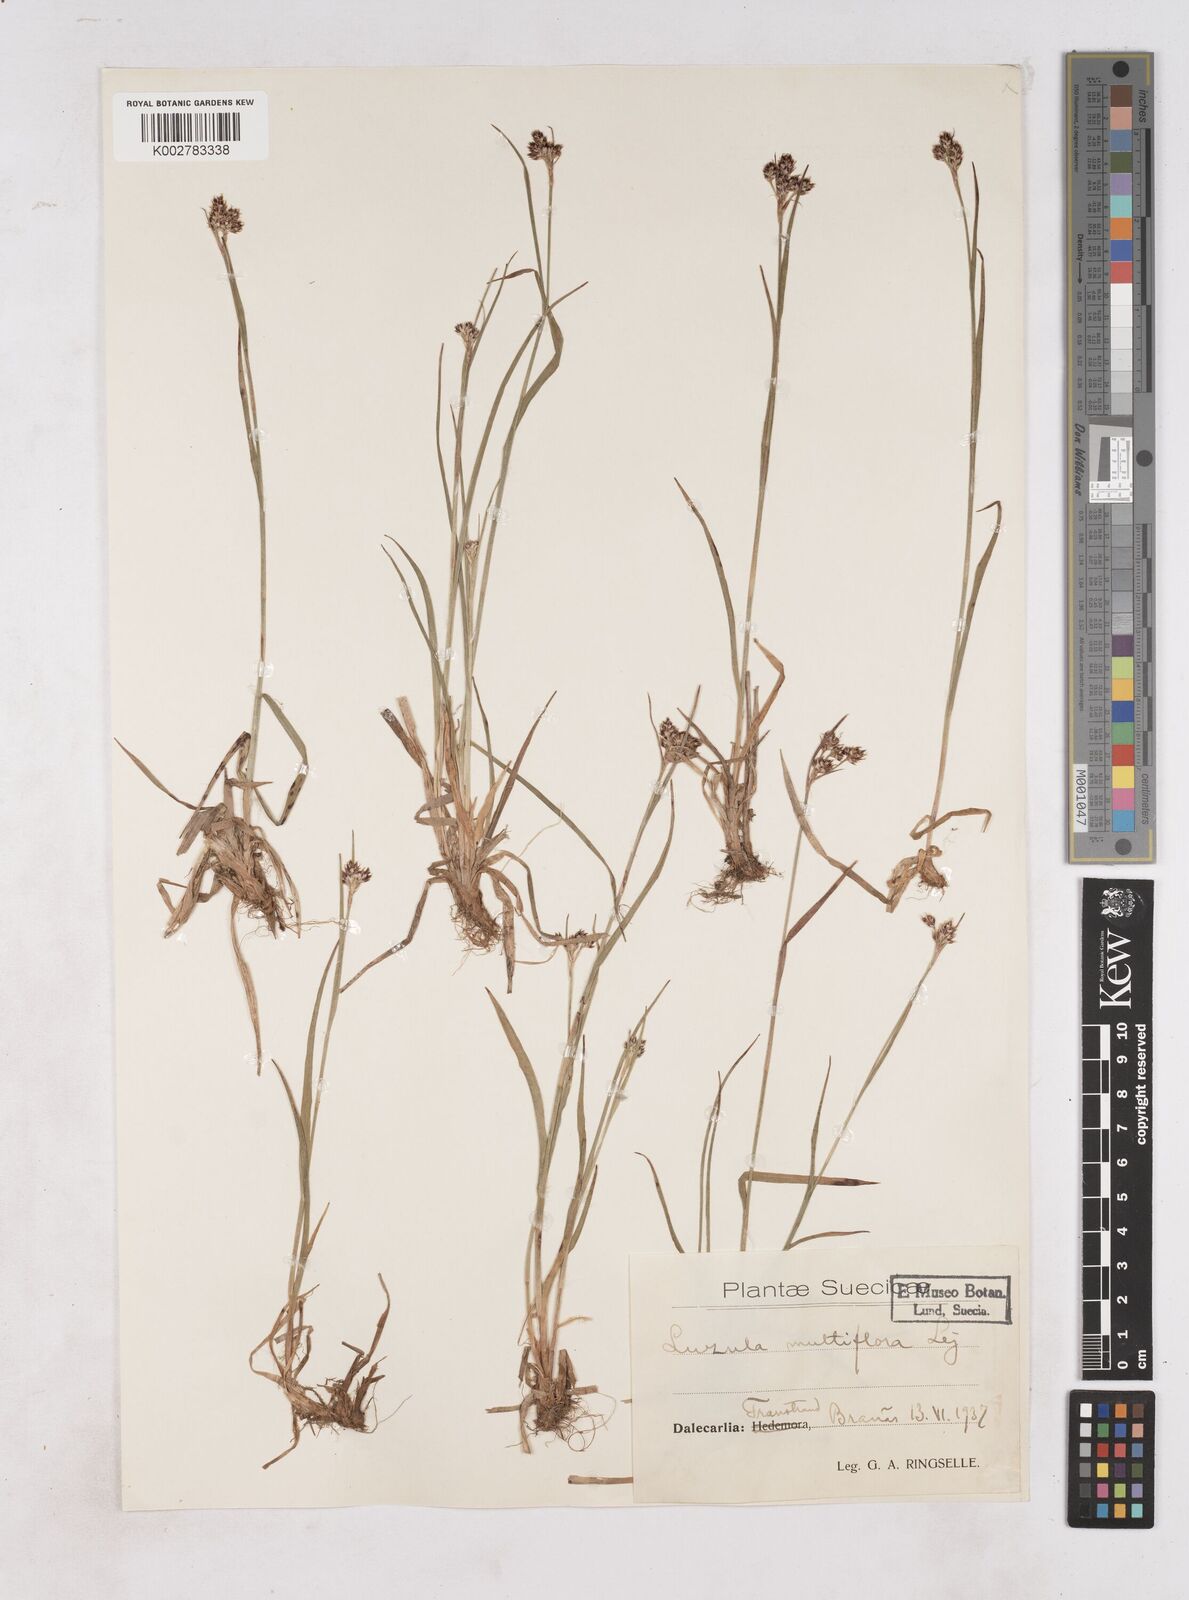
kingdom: Plantae
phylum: Tracheophyta
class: Liliopsida
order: Poales
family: Juncaceae
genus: Luzula
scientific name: Luzula multiflora
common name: Heath wood-rush
